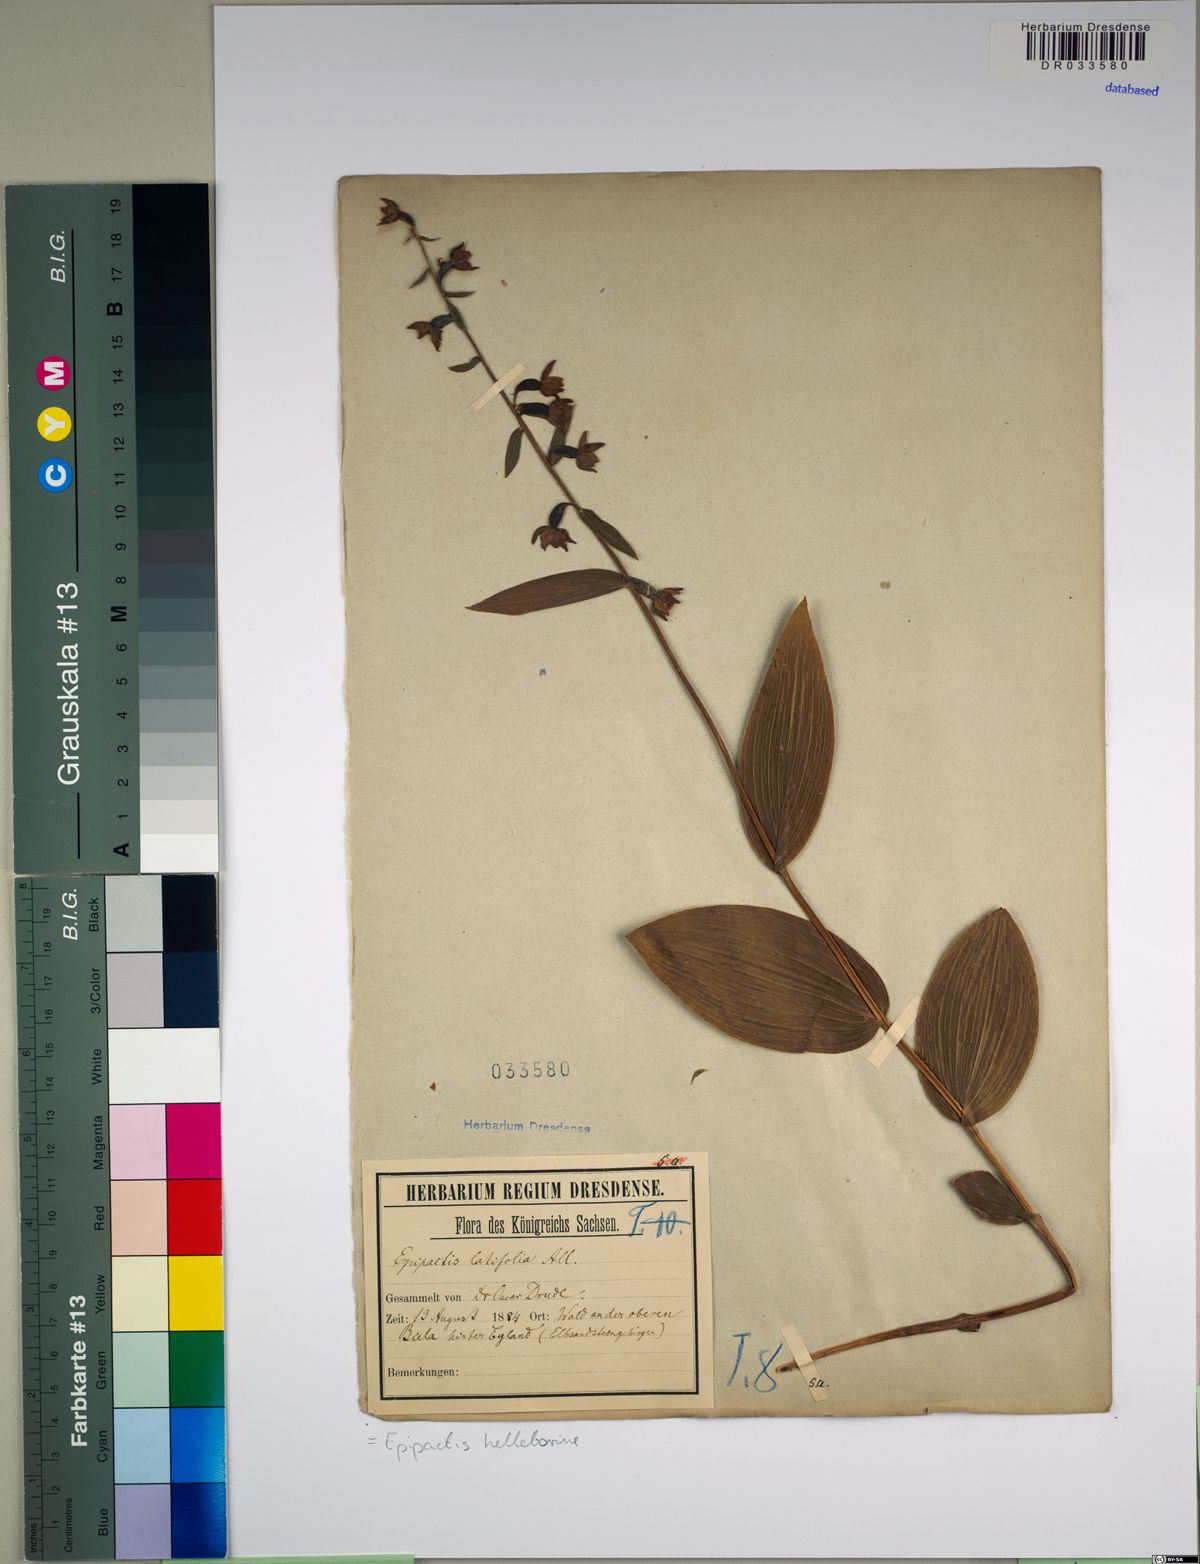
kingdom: Plantae
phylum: Tracheophyta
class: Liliopsida
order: Asparagales
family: Orchidaceae
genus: Epipactis
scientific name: Epipactis helleborine
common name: Broad-leaved helleborine
